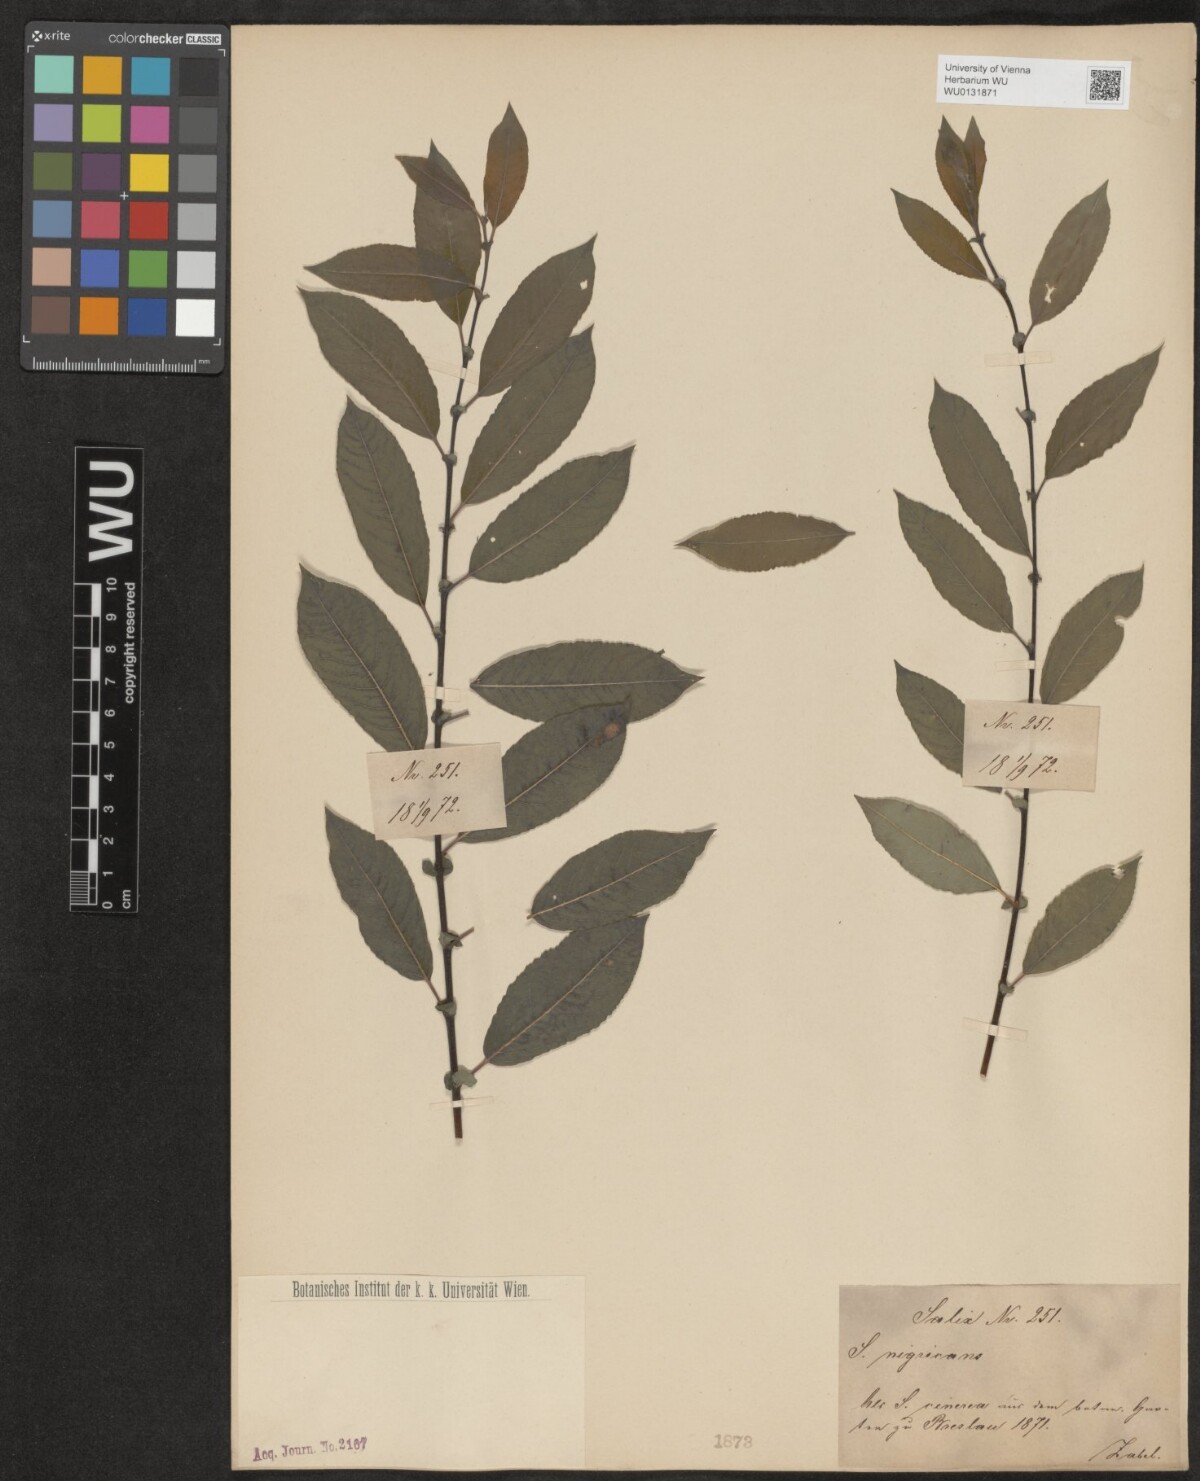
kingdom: Plantae
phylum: Tracheophyta
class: Magnoliopsida
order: Malpighiales
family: Salicaceae
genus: Salix
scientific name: Salix myrsinifolia
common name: Dark-leaved willow
